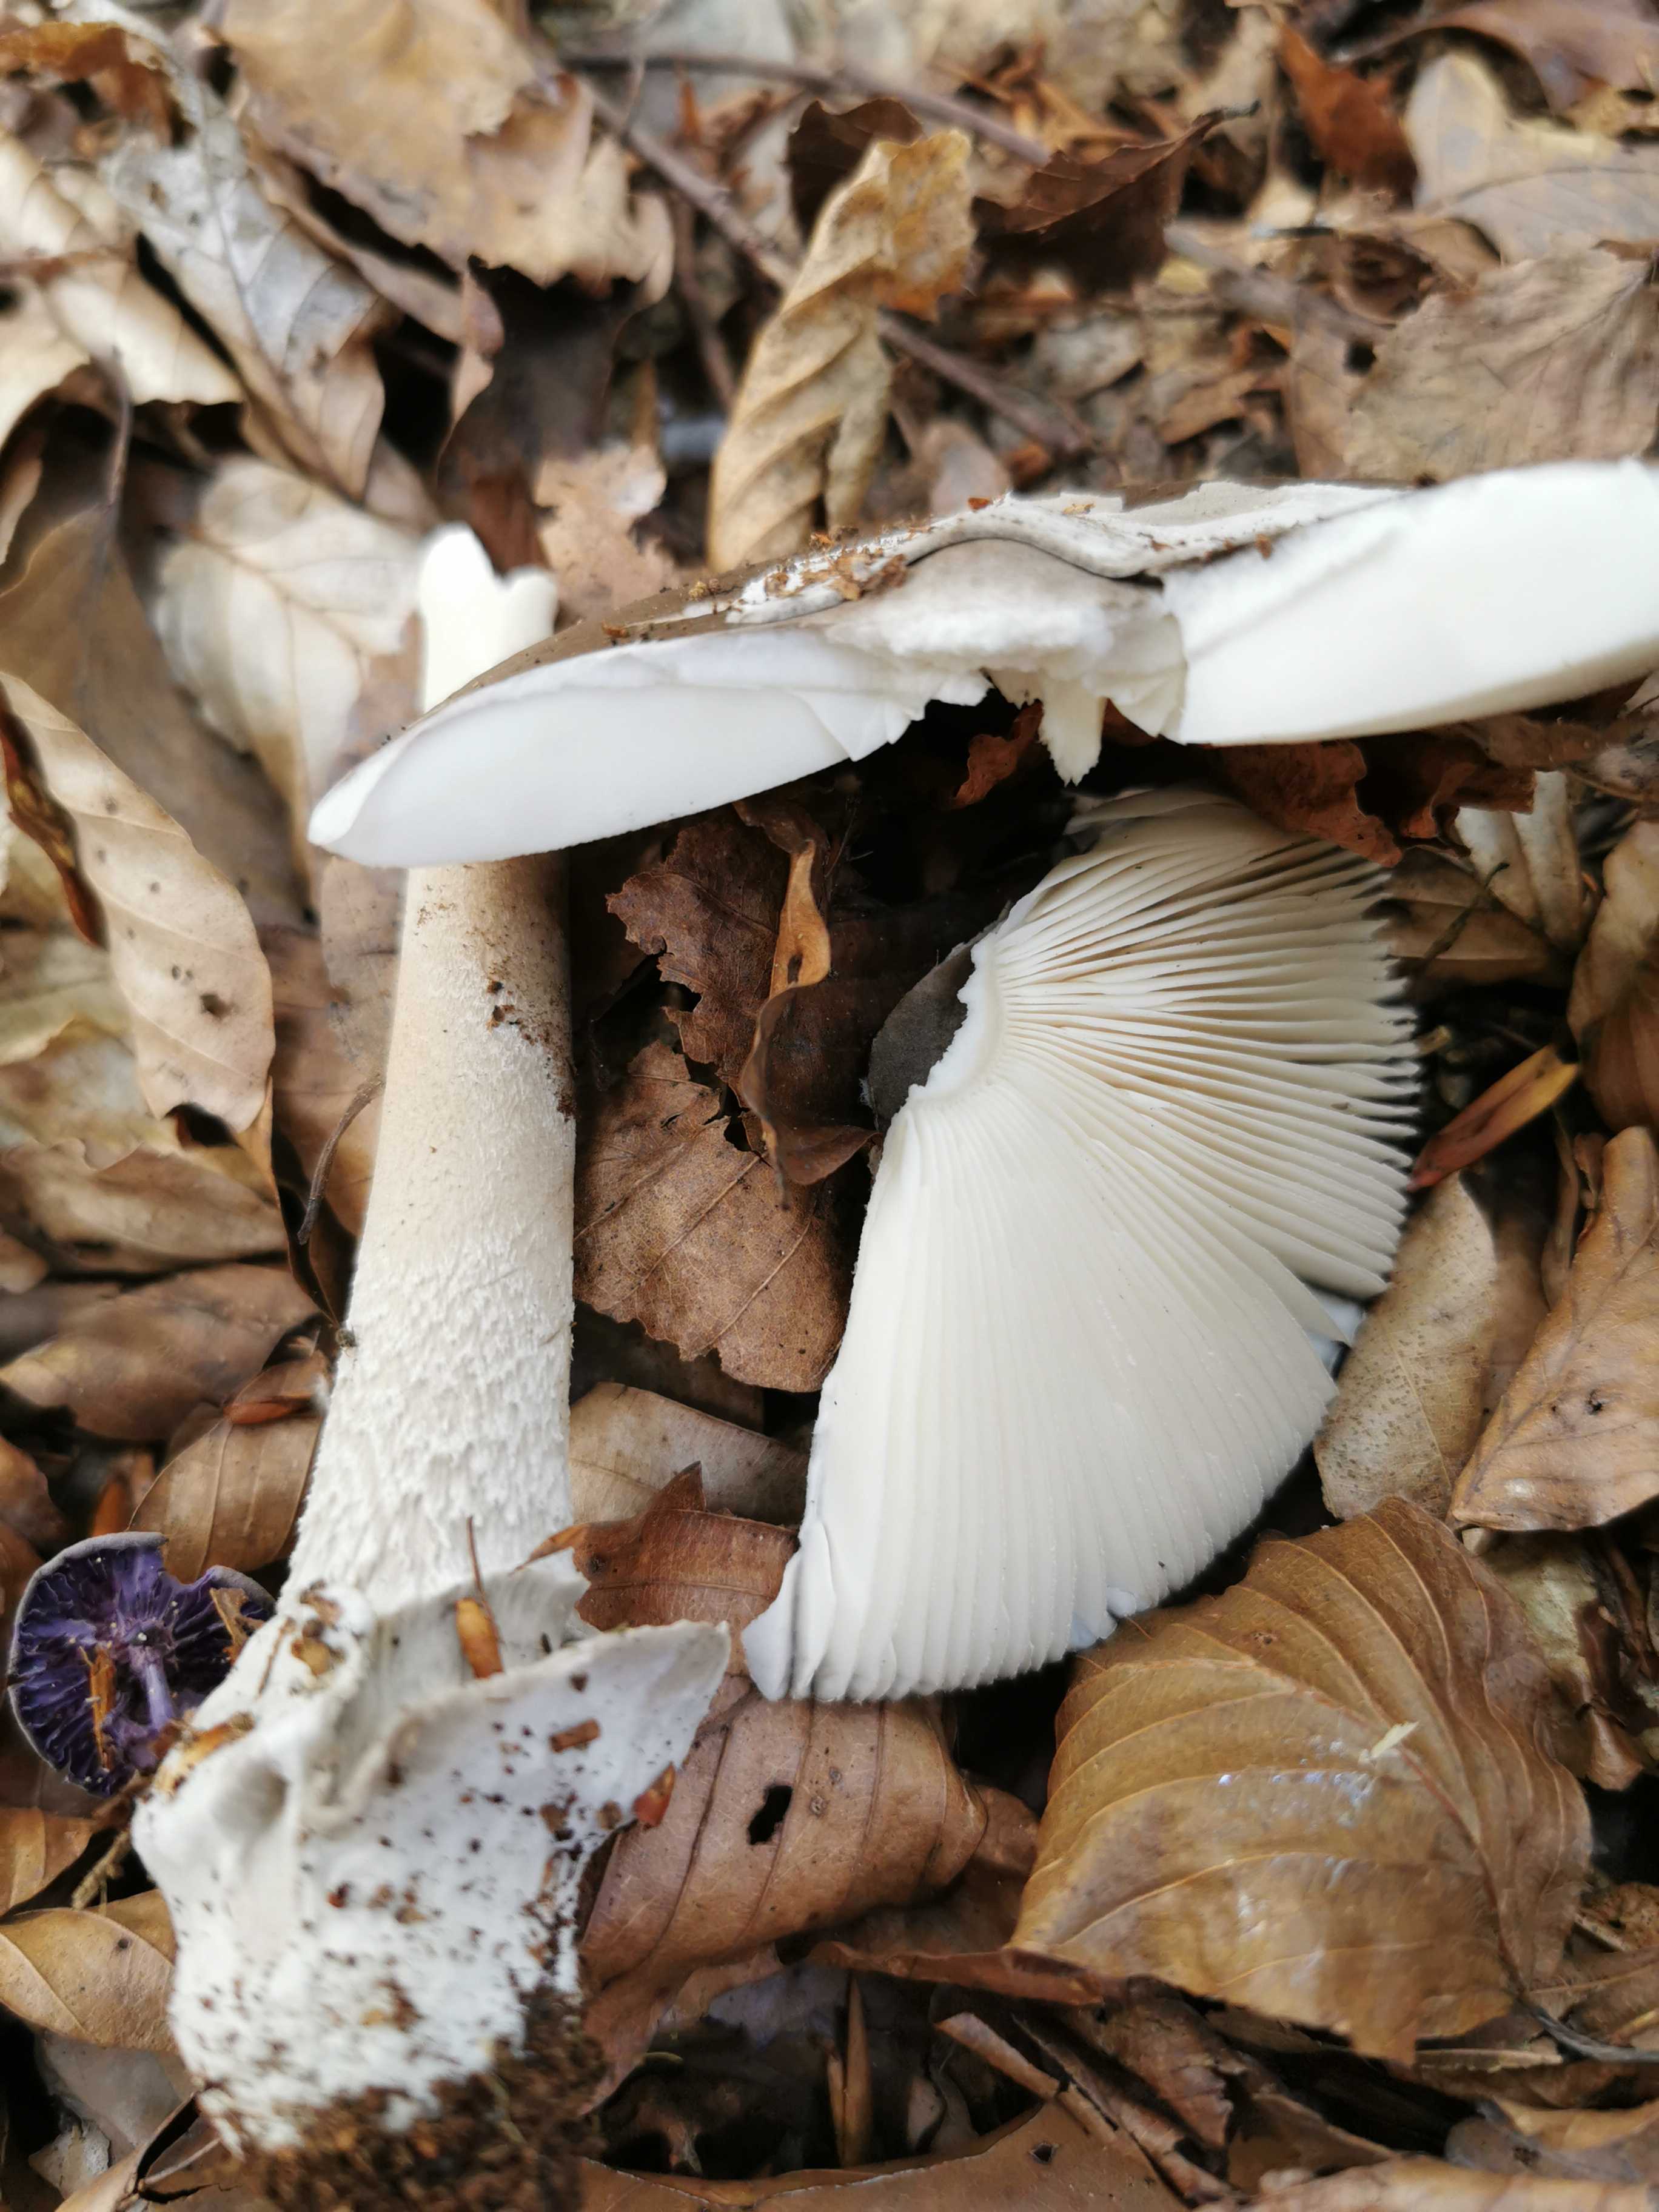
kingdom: Fungi
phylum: Basidiomycota
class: Agaricomycetes
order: Agaricales
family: Amanitaceae
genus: Amanita
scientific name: Amanita
